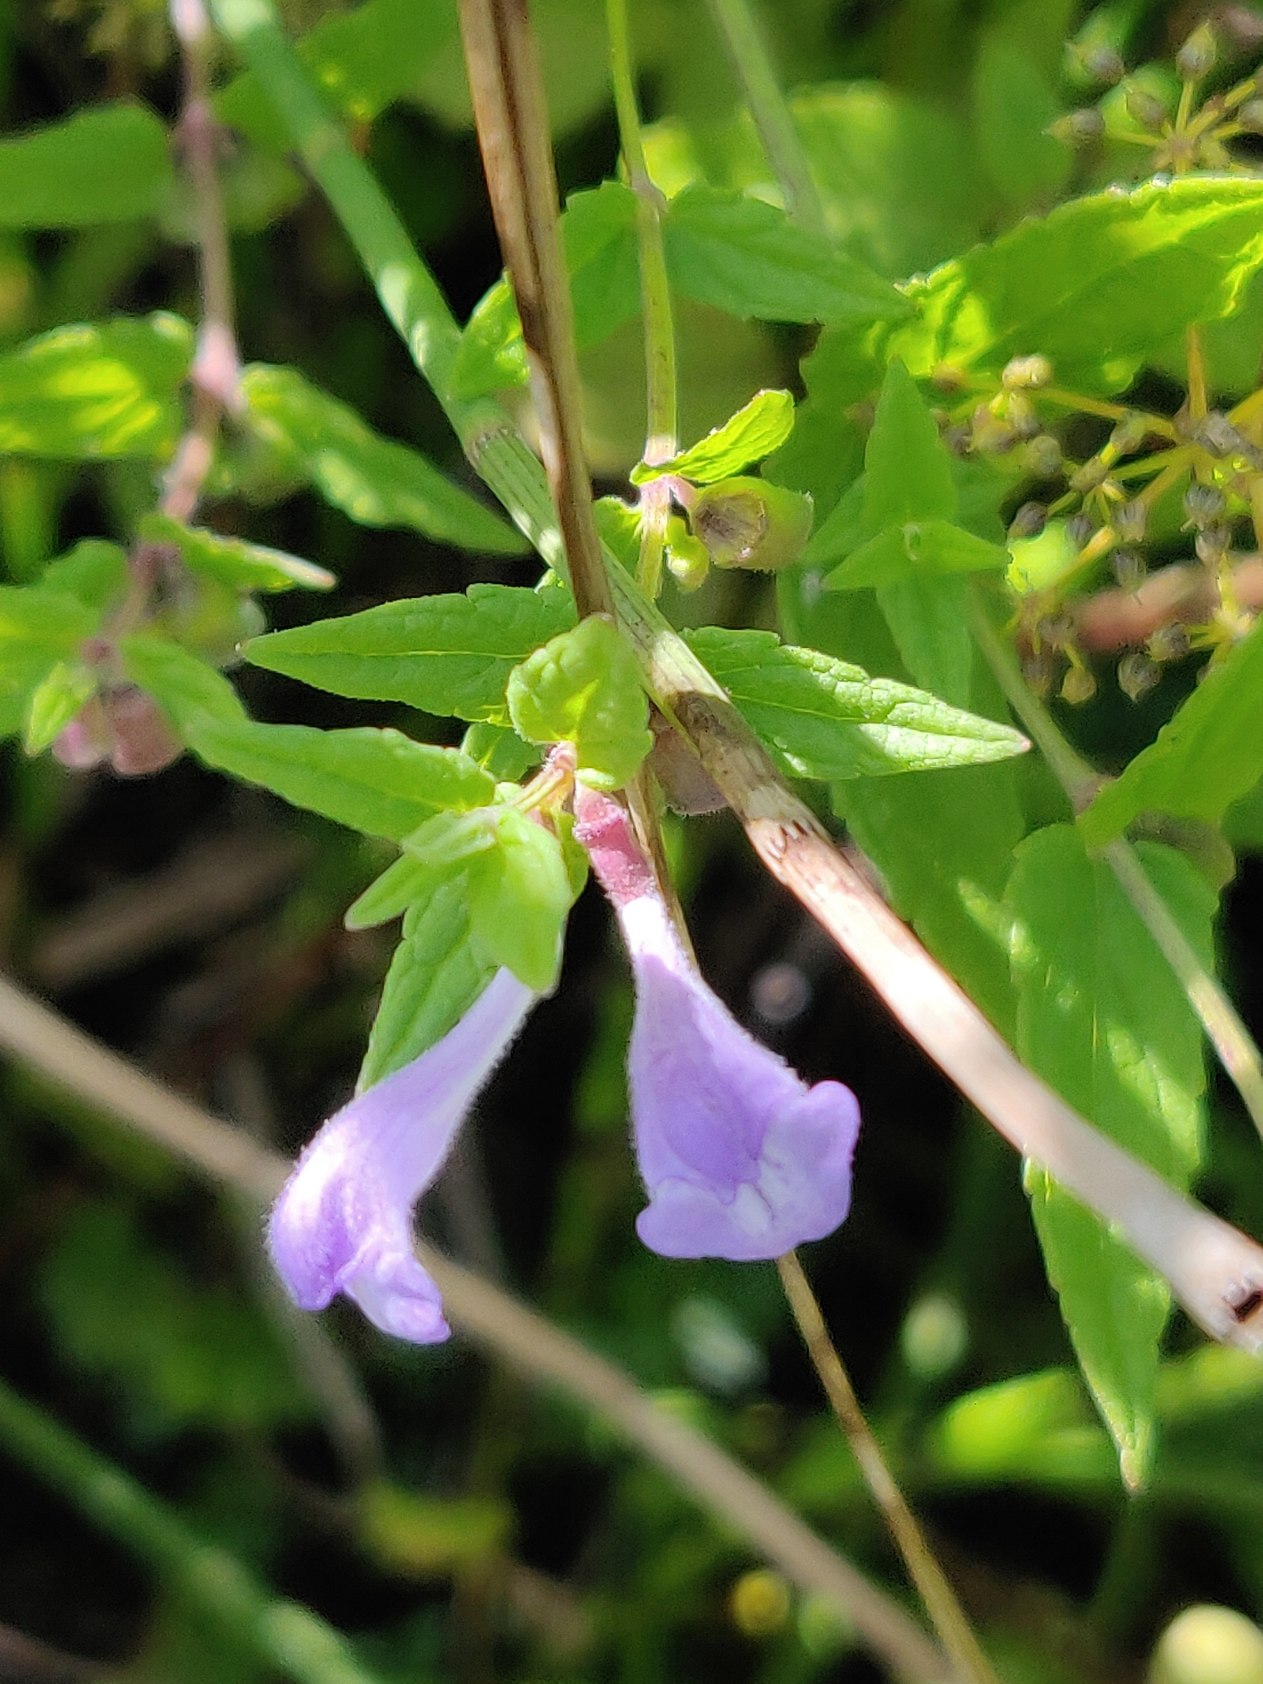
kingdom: Plantae
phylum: Tracheophyta
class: Magnoliopsida
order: Lamiales
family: Lamiaceae
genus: Scutellaria
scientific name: Scutellaria galericulata
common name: Almindelig skjolddrager
